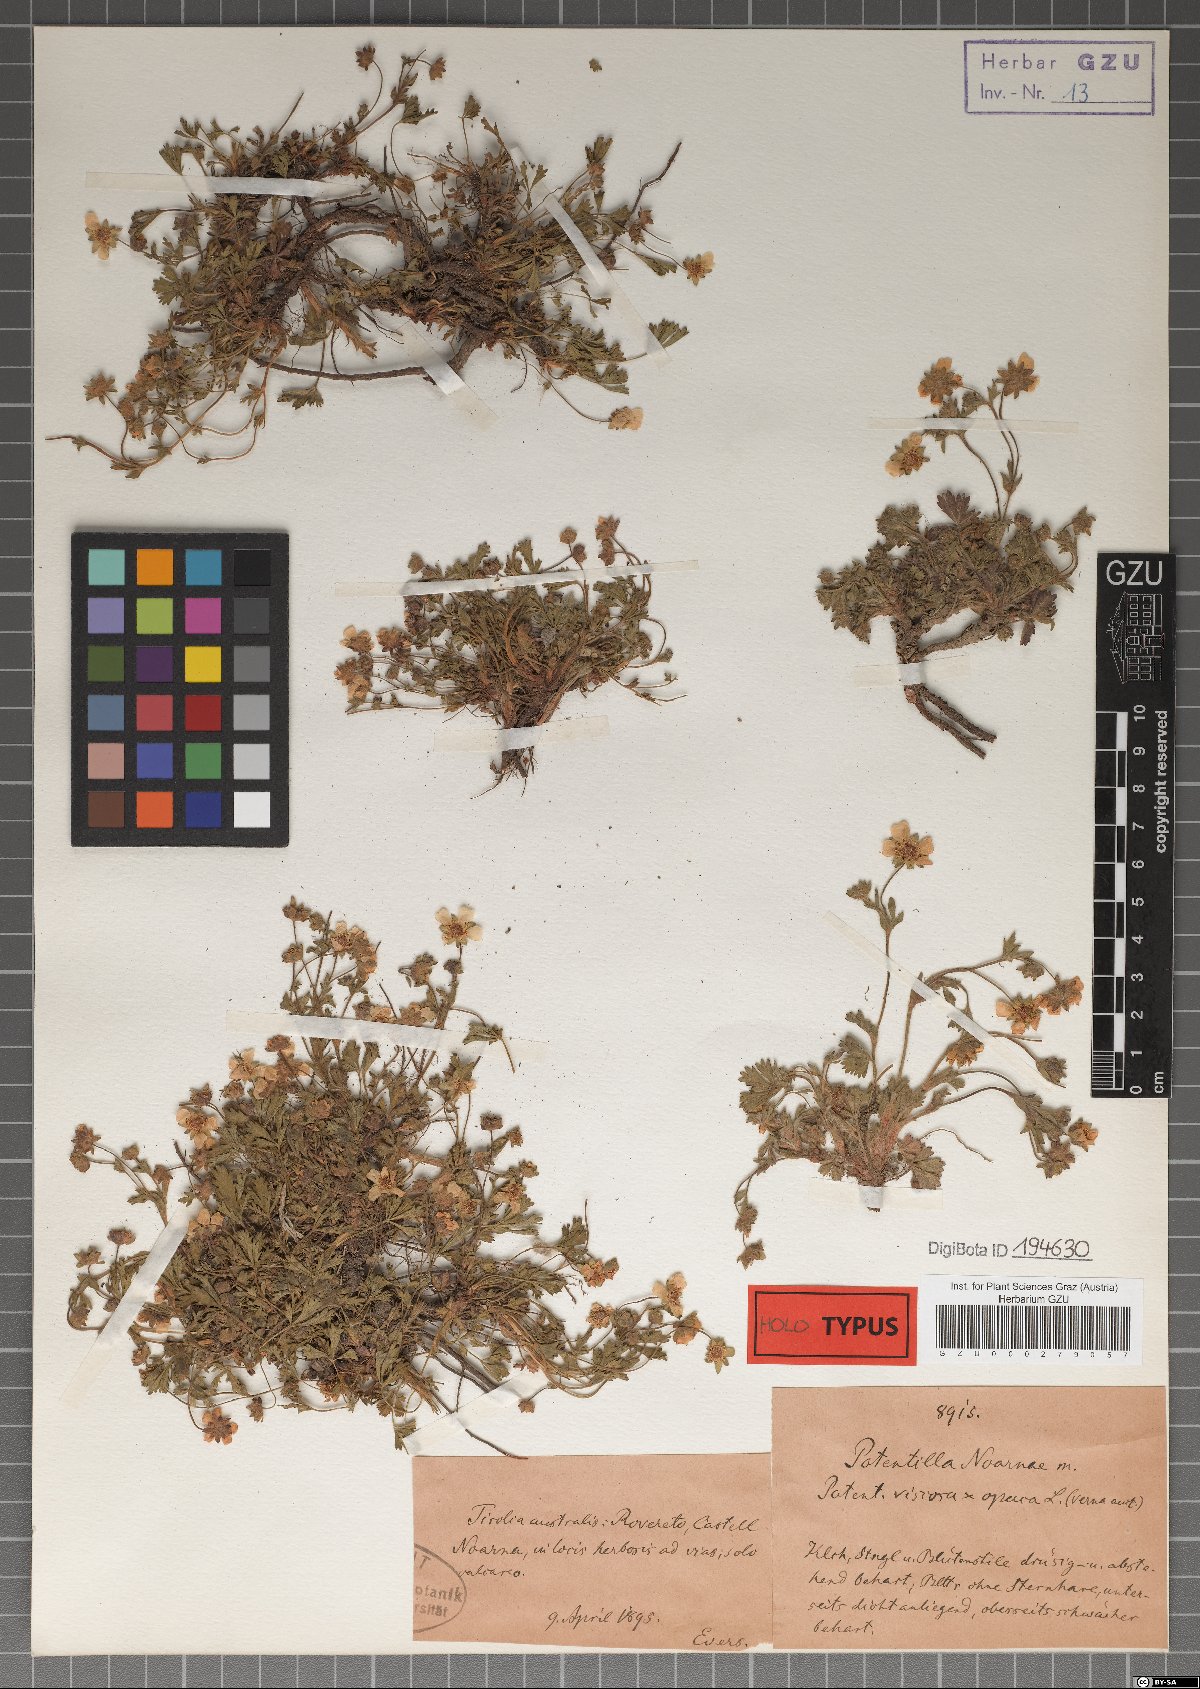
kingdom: Plantae
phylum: Tracheophyta
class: Magnoliopsida
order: Rosales
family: Rosaceae
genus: Potentilla
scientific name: Potentilla pusilla
